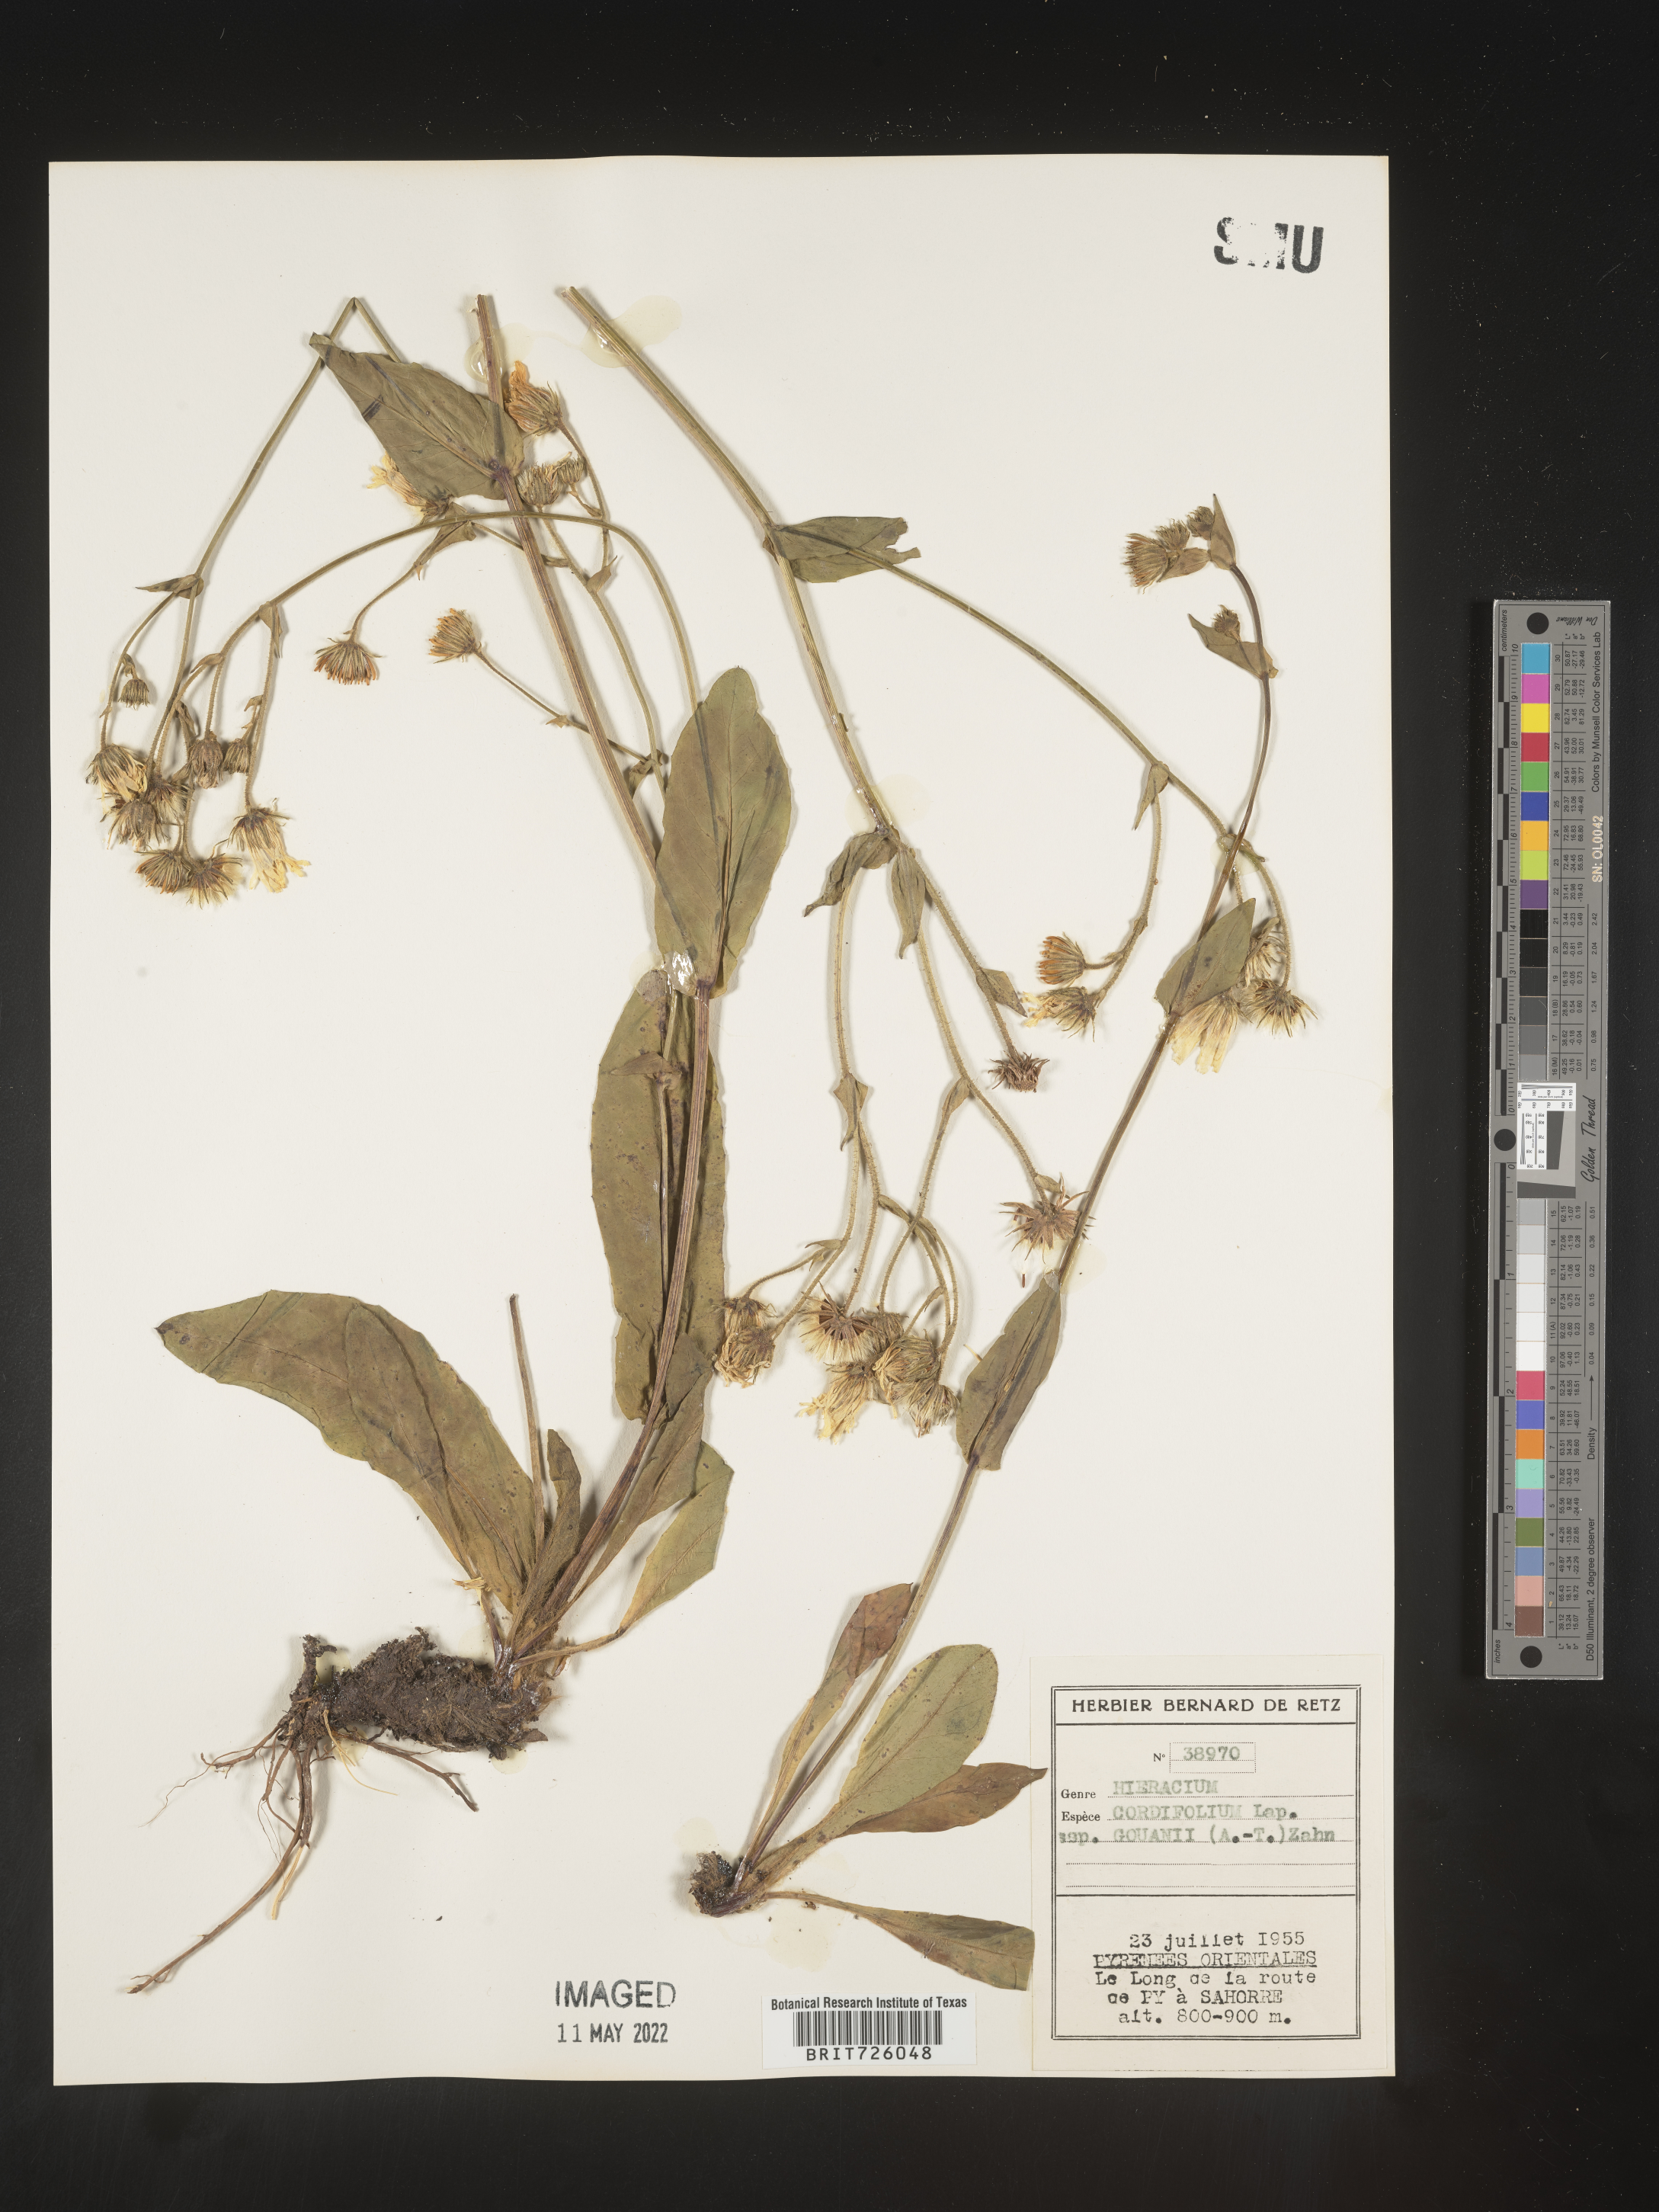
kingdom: Plantae
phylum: Tracheophyta
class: Magnoliopsida
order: Asterales
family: Asteraceae
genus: Hieracium
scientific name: Hieracium
